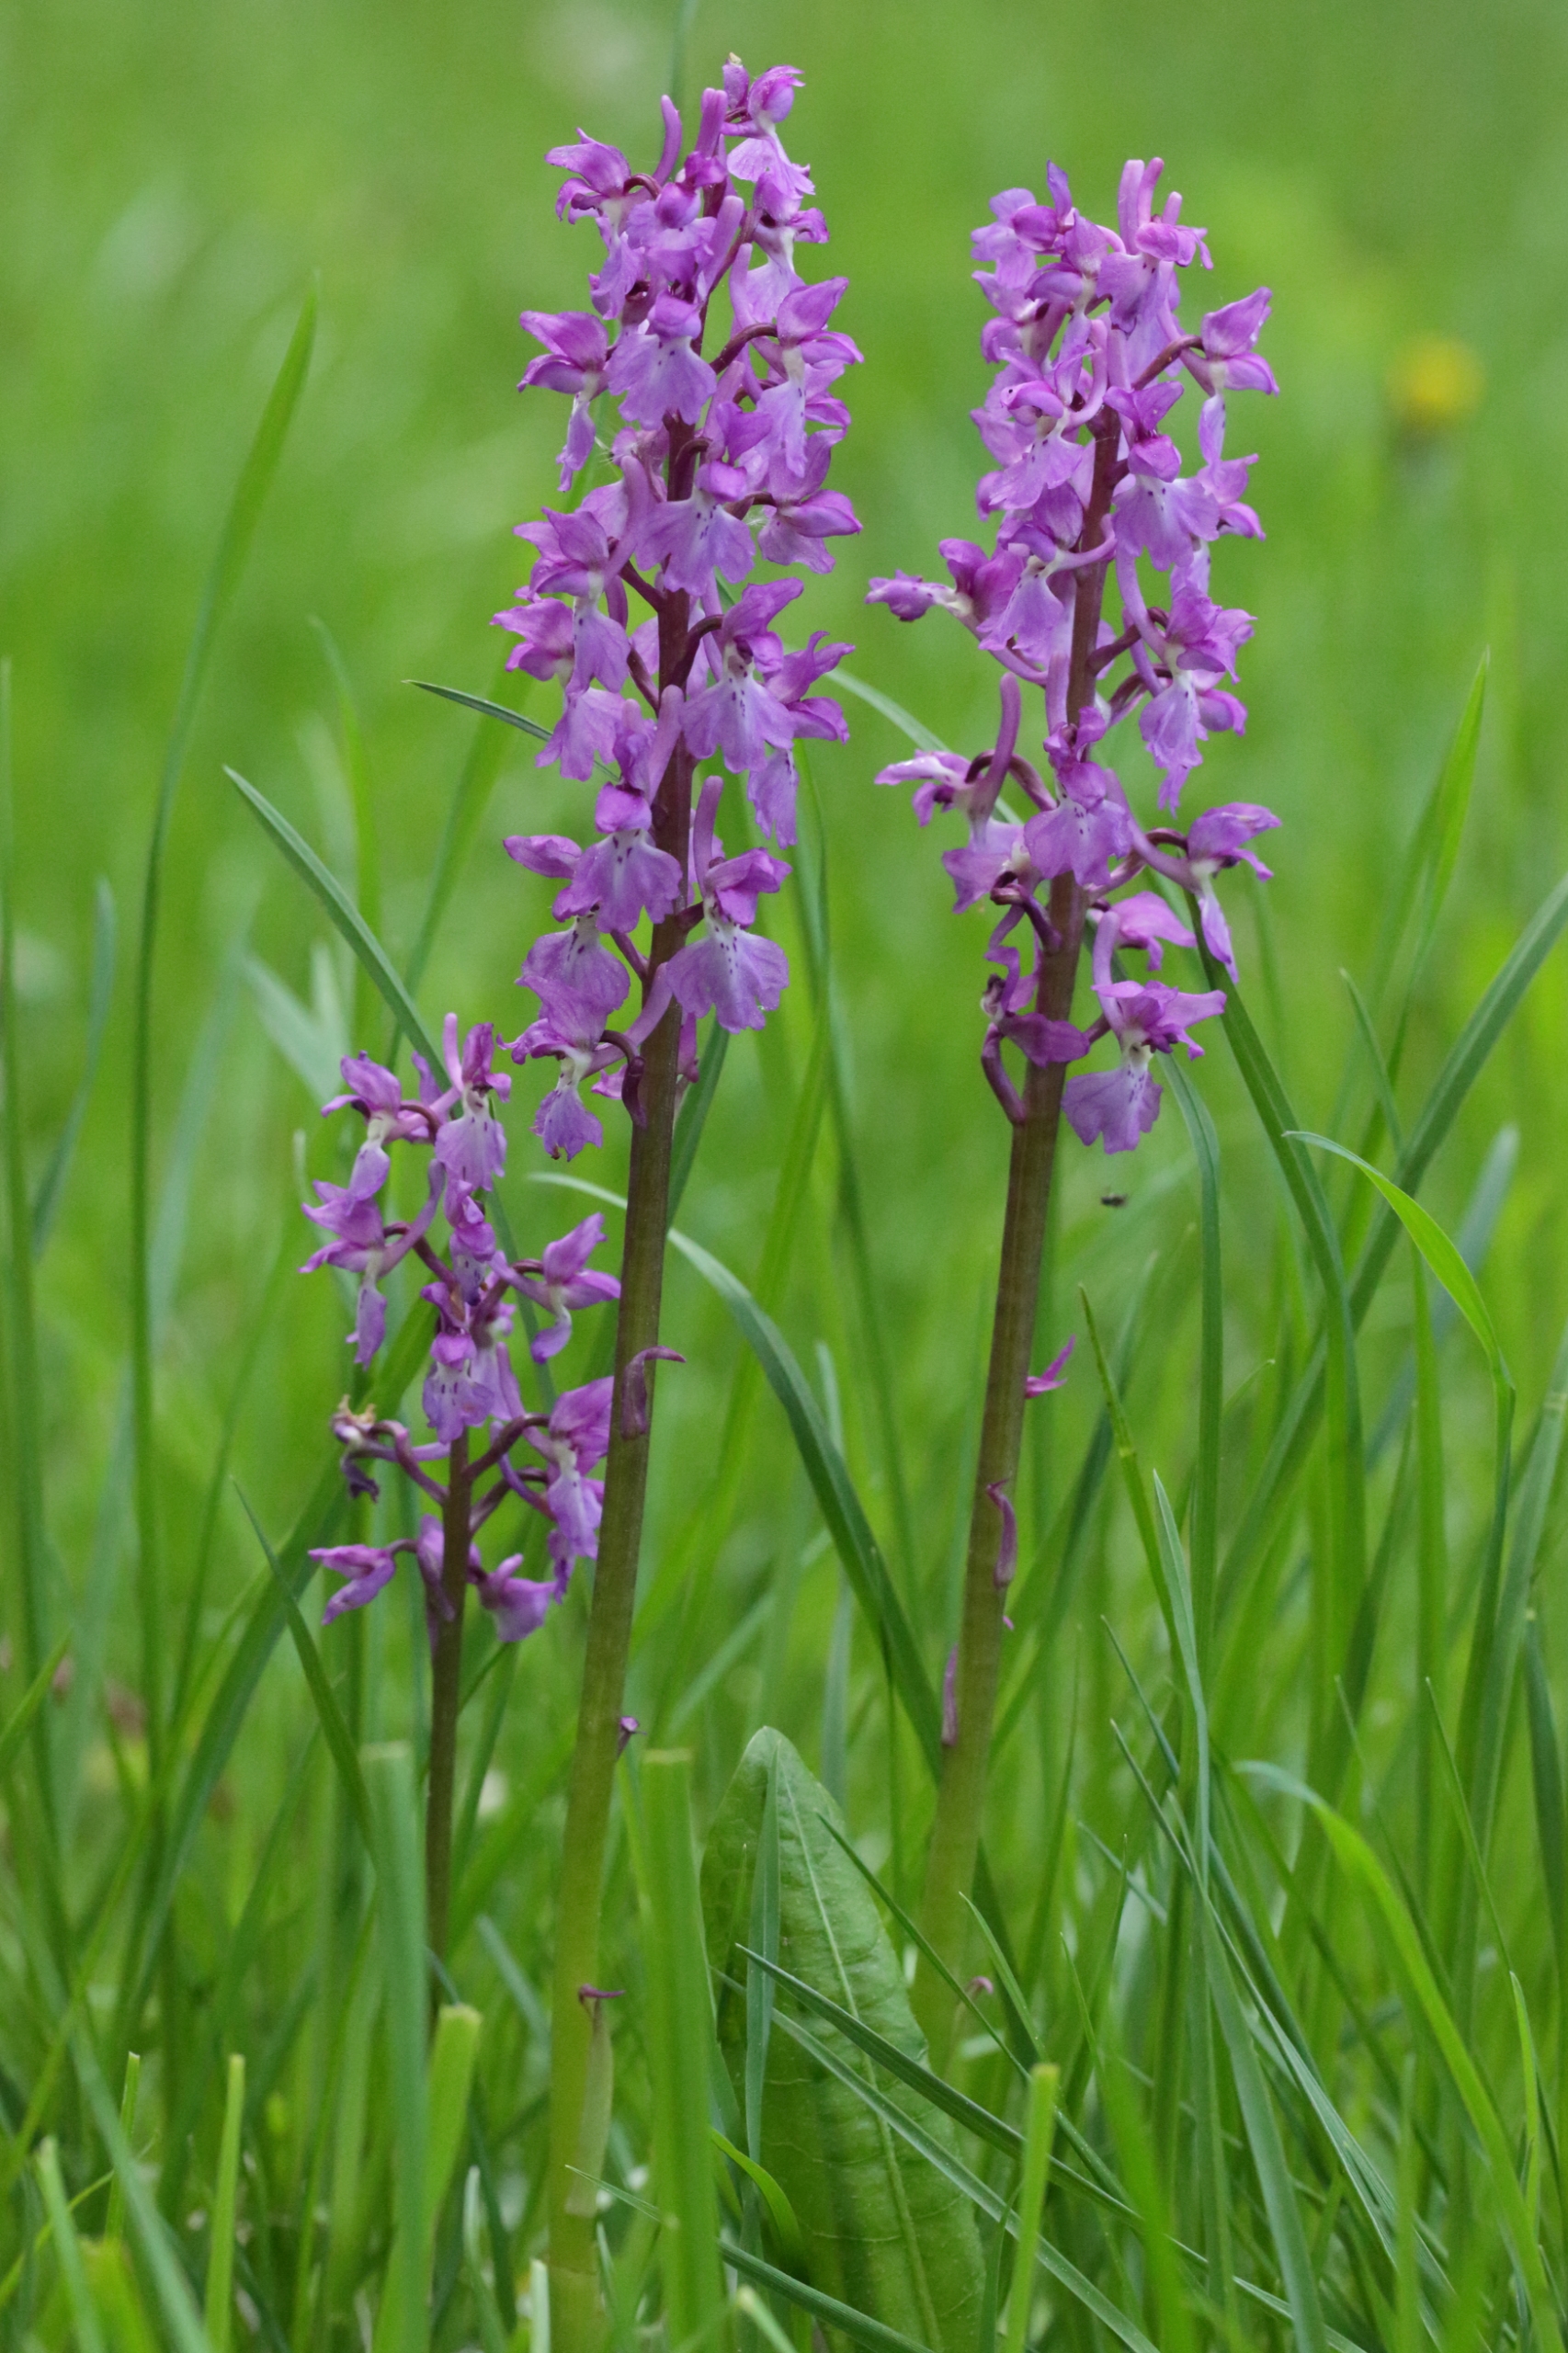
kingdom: Plantae
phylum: Tracheophyta
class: Liliopsida
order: Asparagales
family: Orchidaceae
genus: Orchis
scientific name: Orchis mascula
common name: Tyndakset gøgeurt
